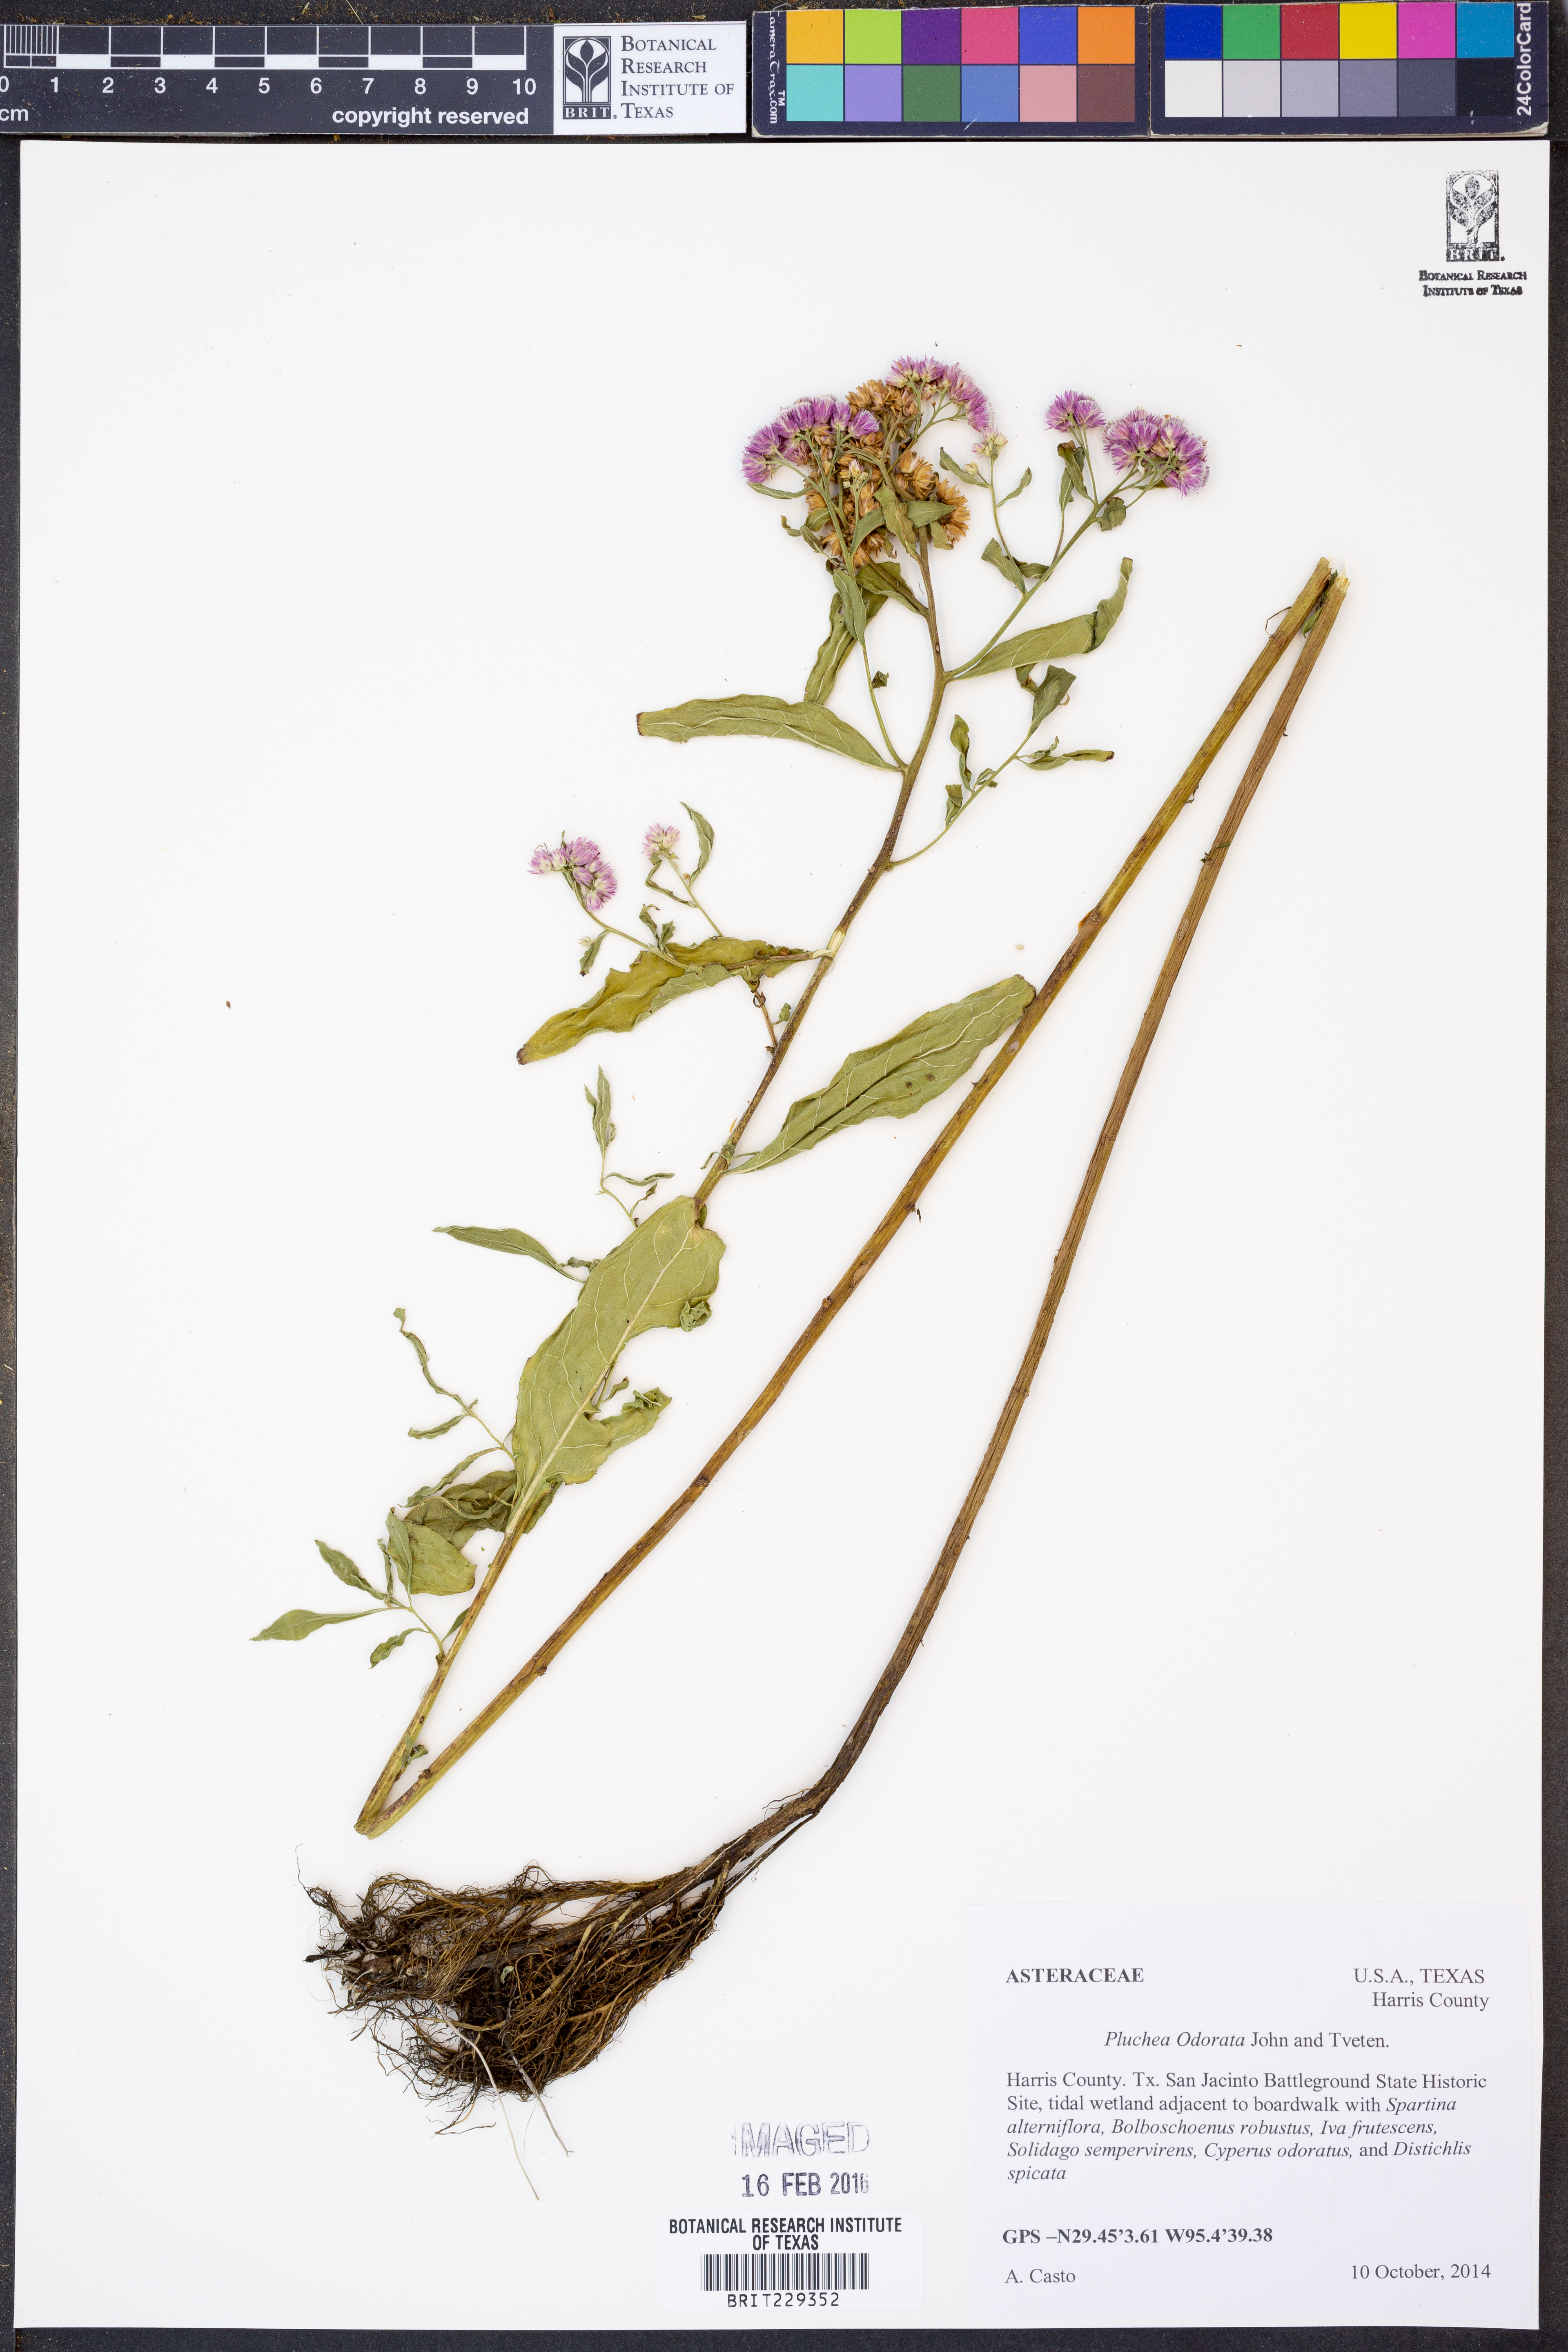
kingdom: Plantae
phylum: Tracheophyta
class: Magnoliopsida
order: Asterales
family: Asteraceae
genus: Pluchea
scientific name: Pluchea odorata
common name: Saltmarsh fleabane
